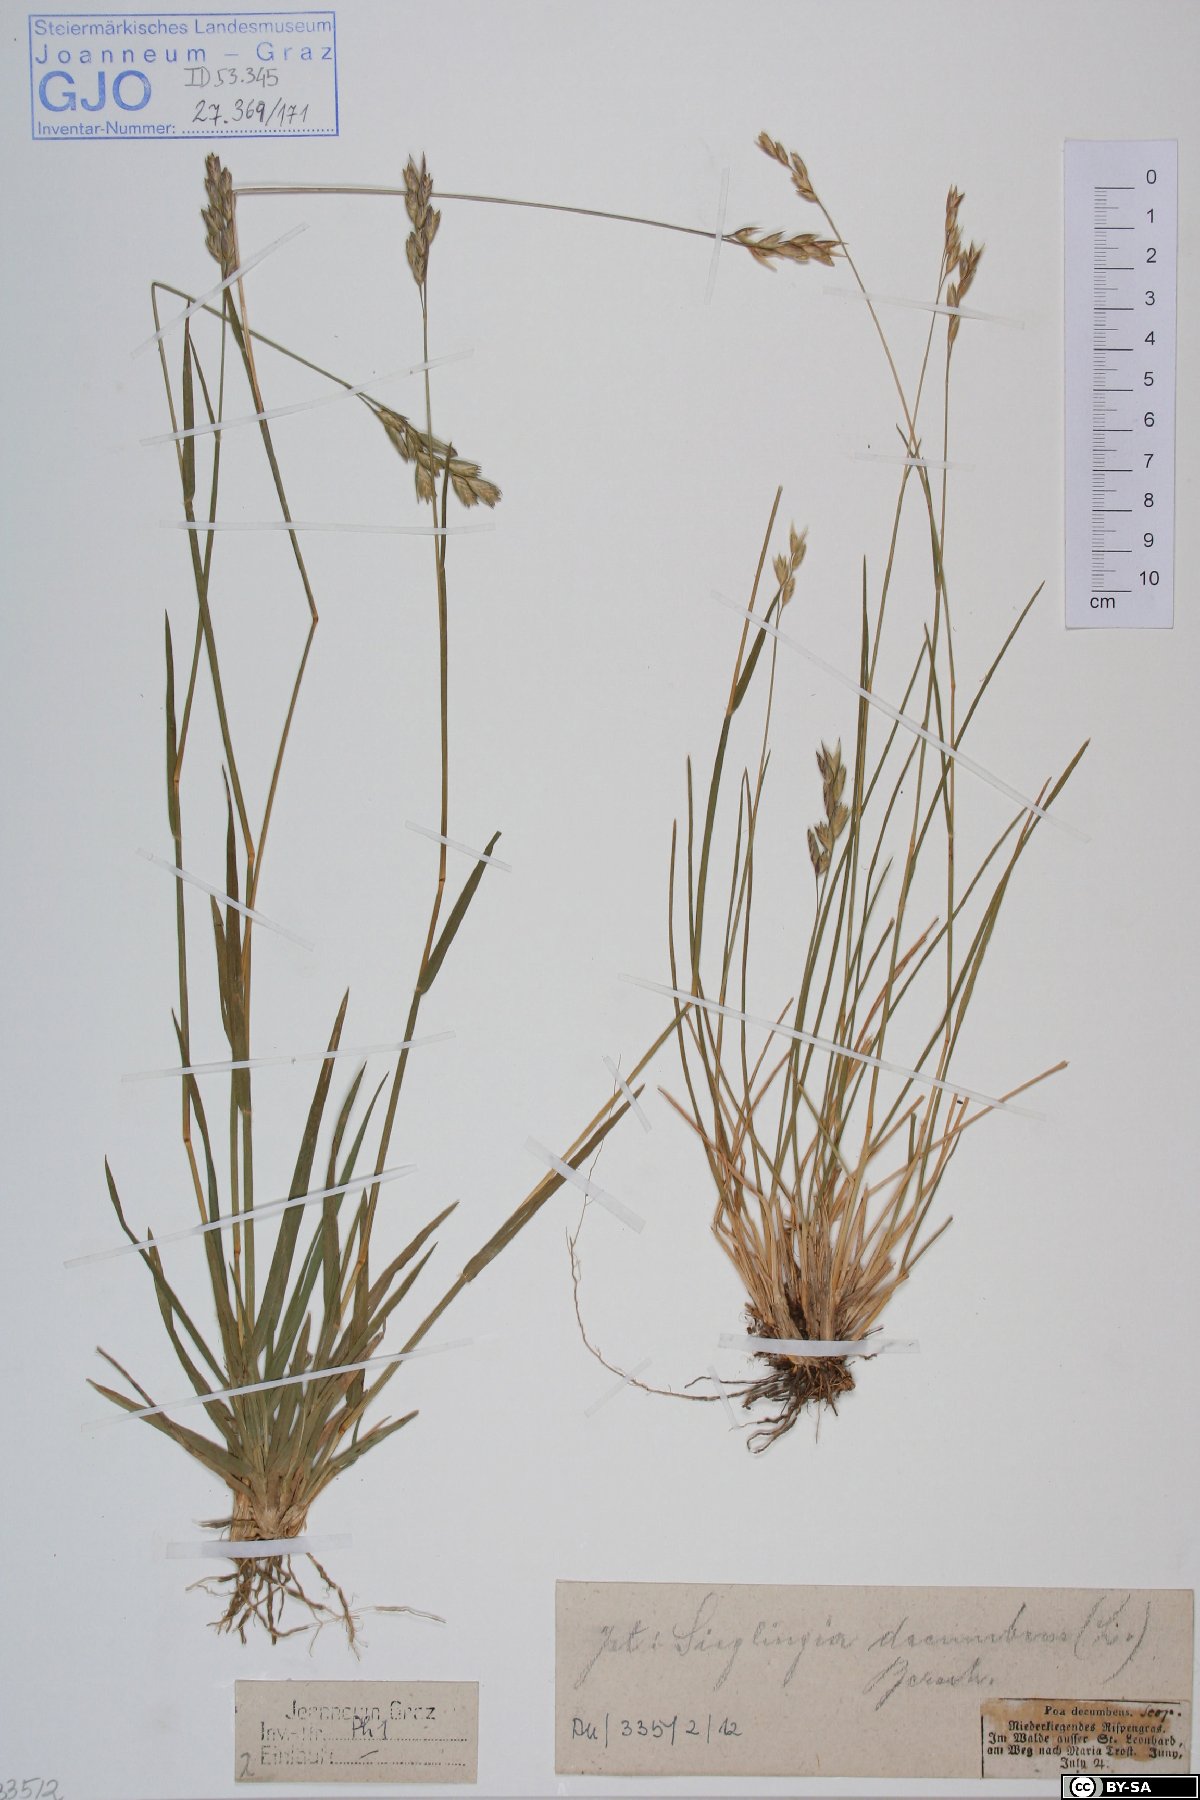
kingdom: Plantae
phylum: Tracheophyta
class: Liliopsida
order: Poales
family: Poaceae
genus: Danthonia
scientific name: Danthonia decumbens
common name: Common heathgrass
